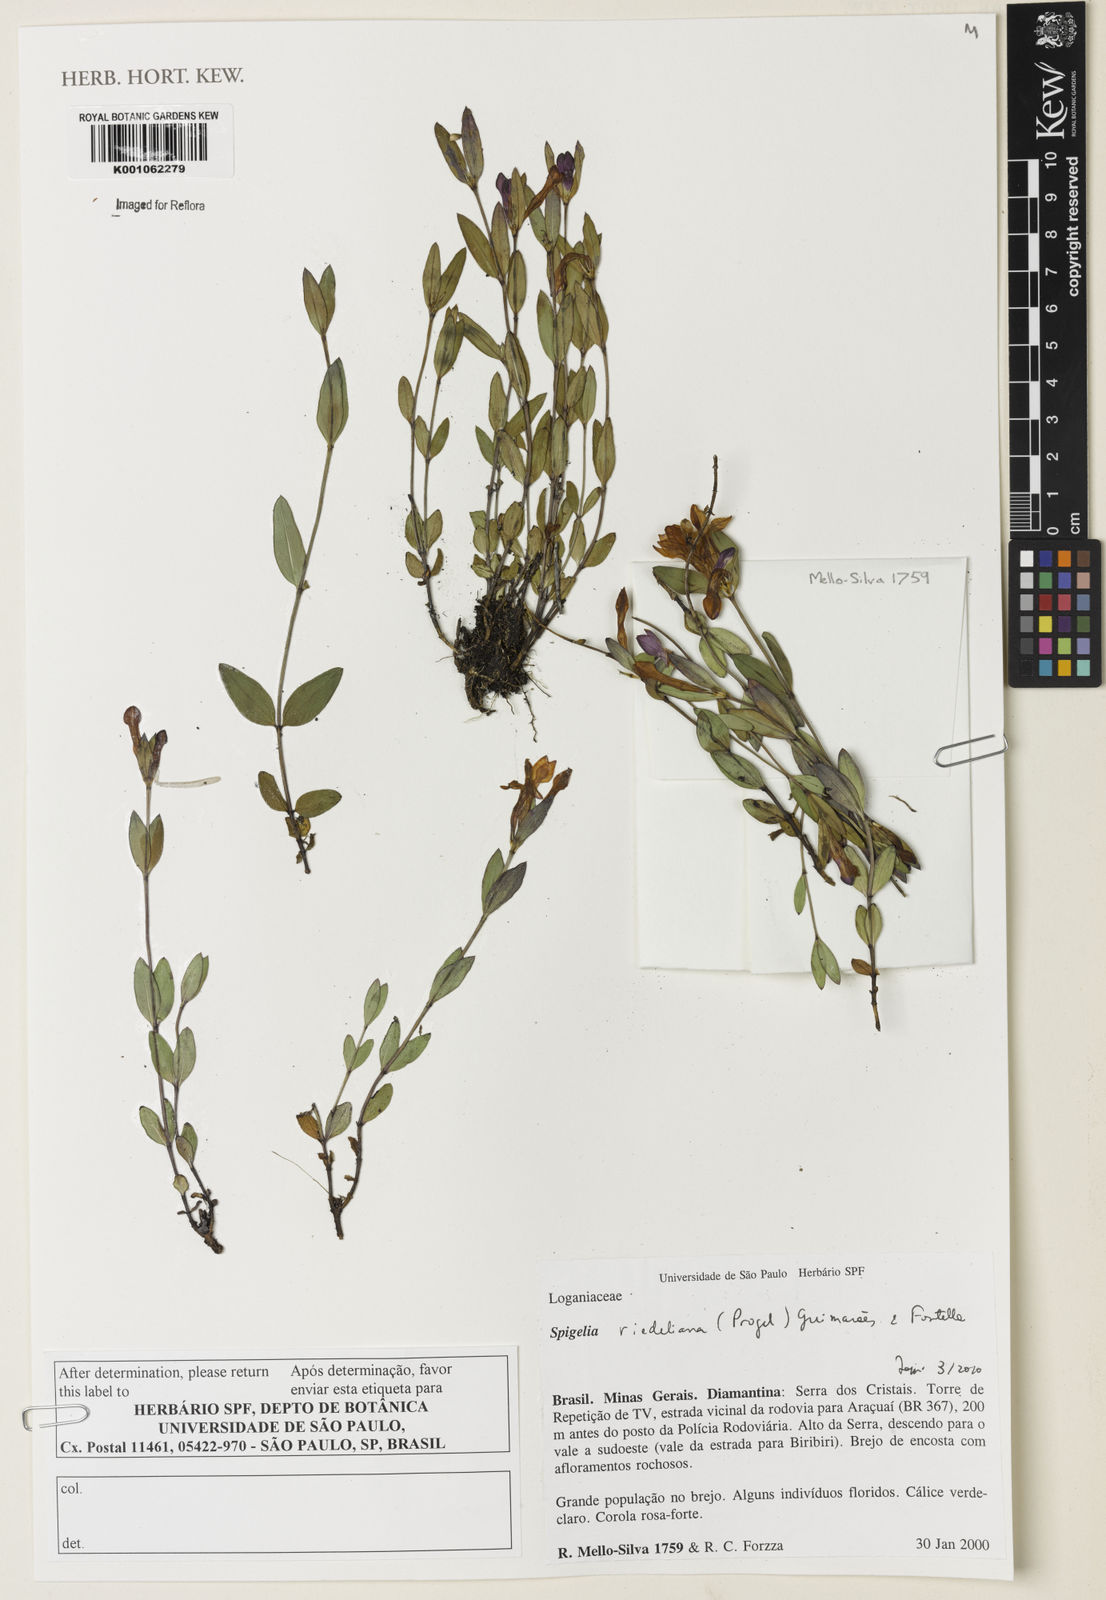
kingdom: Plantae
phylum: Tracheophyta
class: Magnoliopsida
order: Gentianales
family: Loganiaceae
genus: Spigelia
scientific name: Spigelia riedeliana
